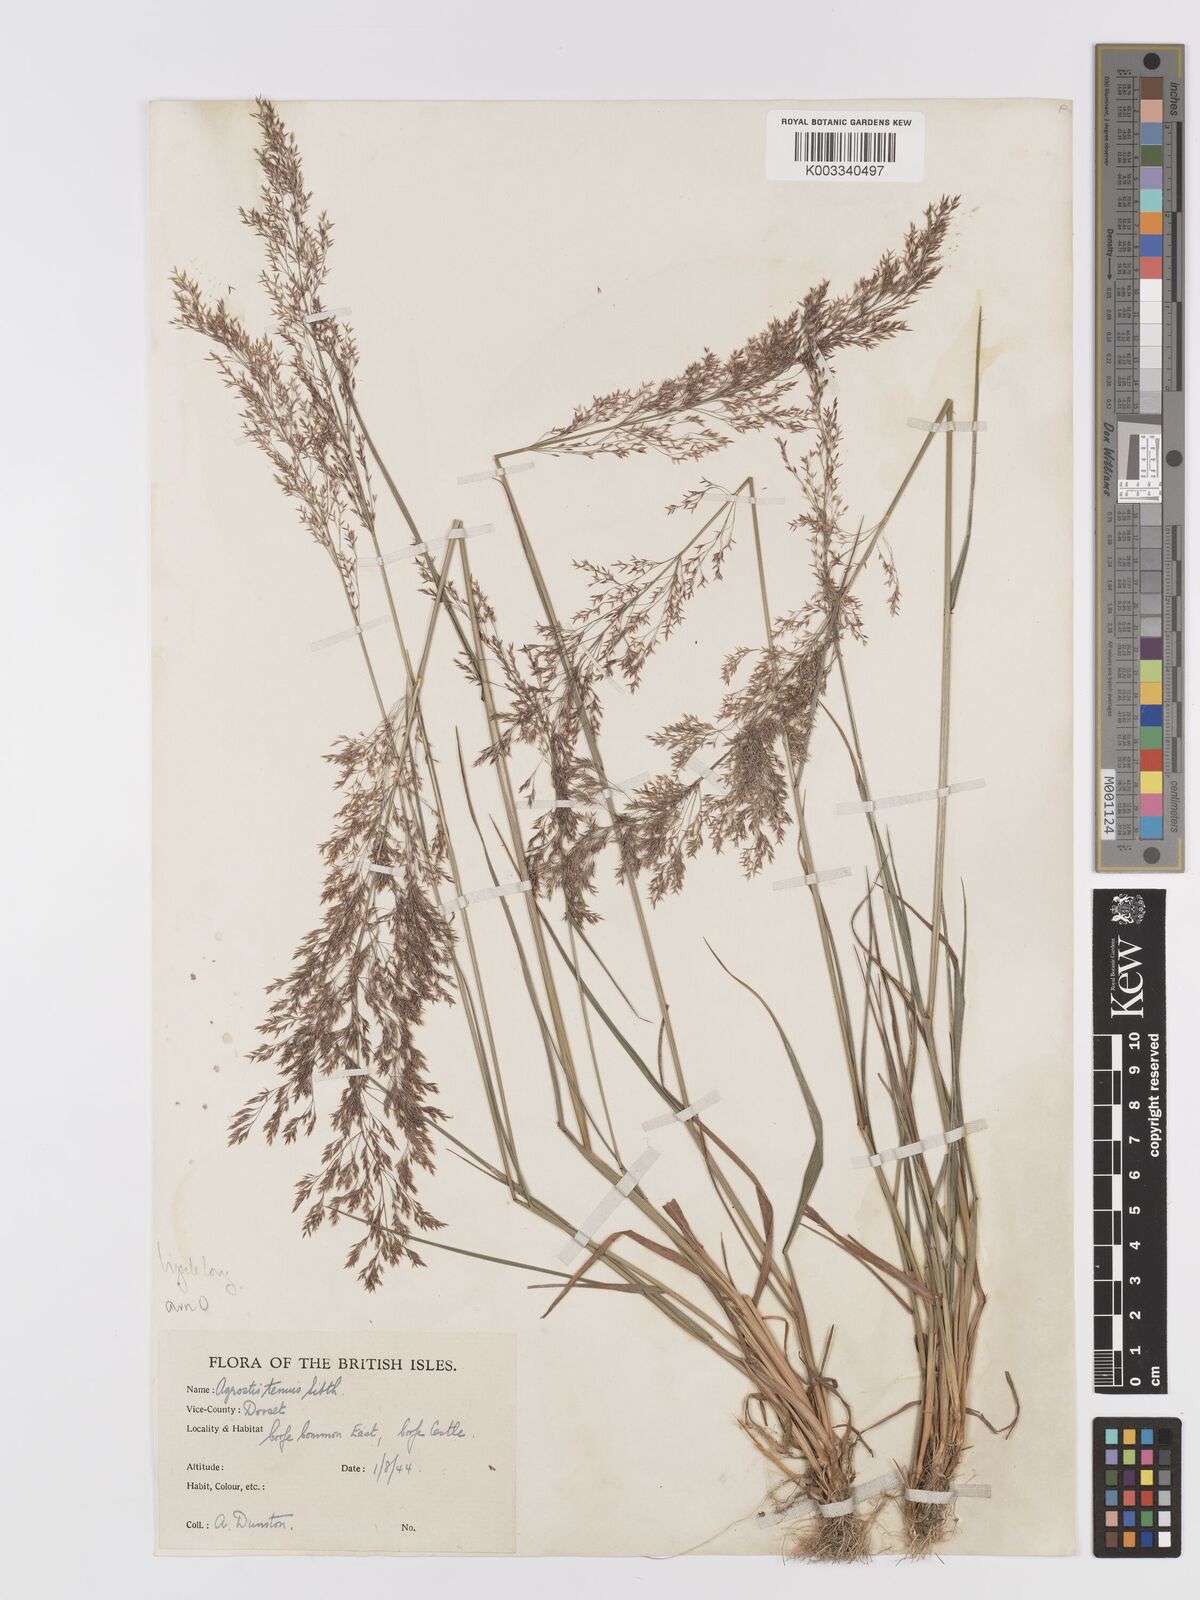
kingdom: Plantae
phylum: Tracheophyta
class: Liliopsida
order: Poales
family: Poaceae
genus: Agrostis
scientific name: Agrostis capillaris
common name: Colonial bentgrass
